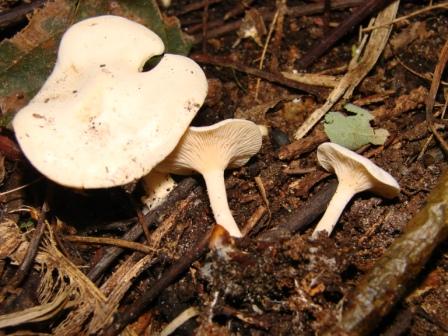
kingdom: Fungi
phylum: Basidiomycota
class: Agaricomycetes
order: Agaricales
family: Tricholomataceae
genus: Lulesia
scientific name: Lulesia
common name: hvid troldhat
